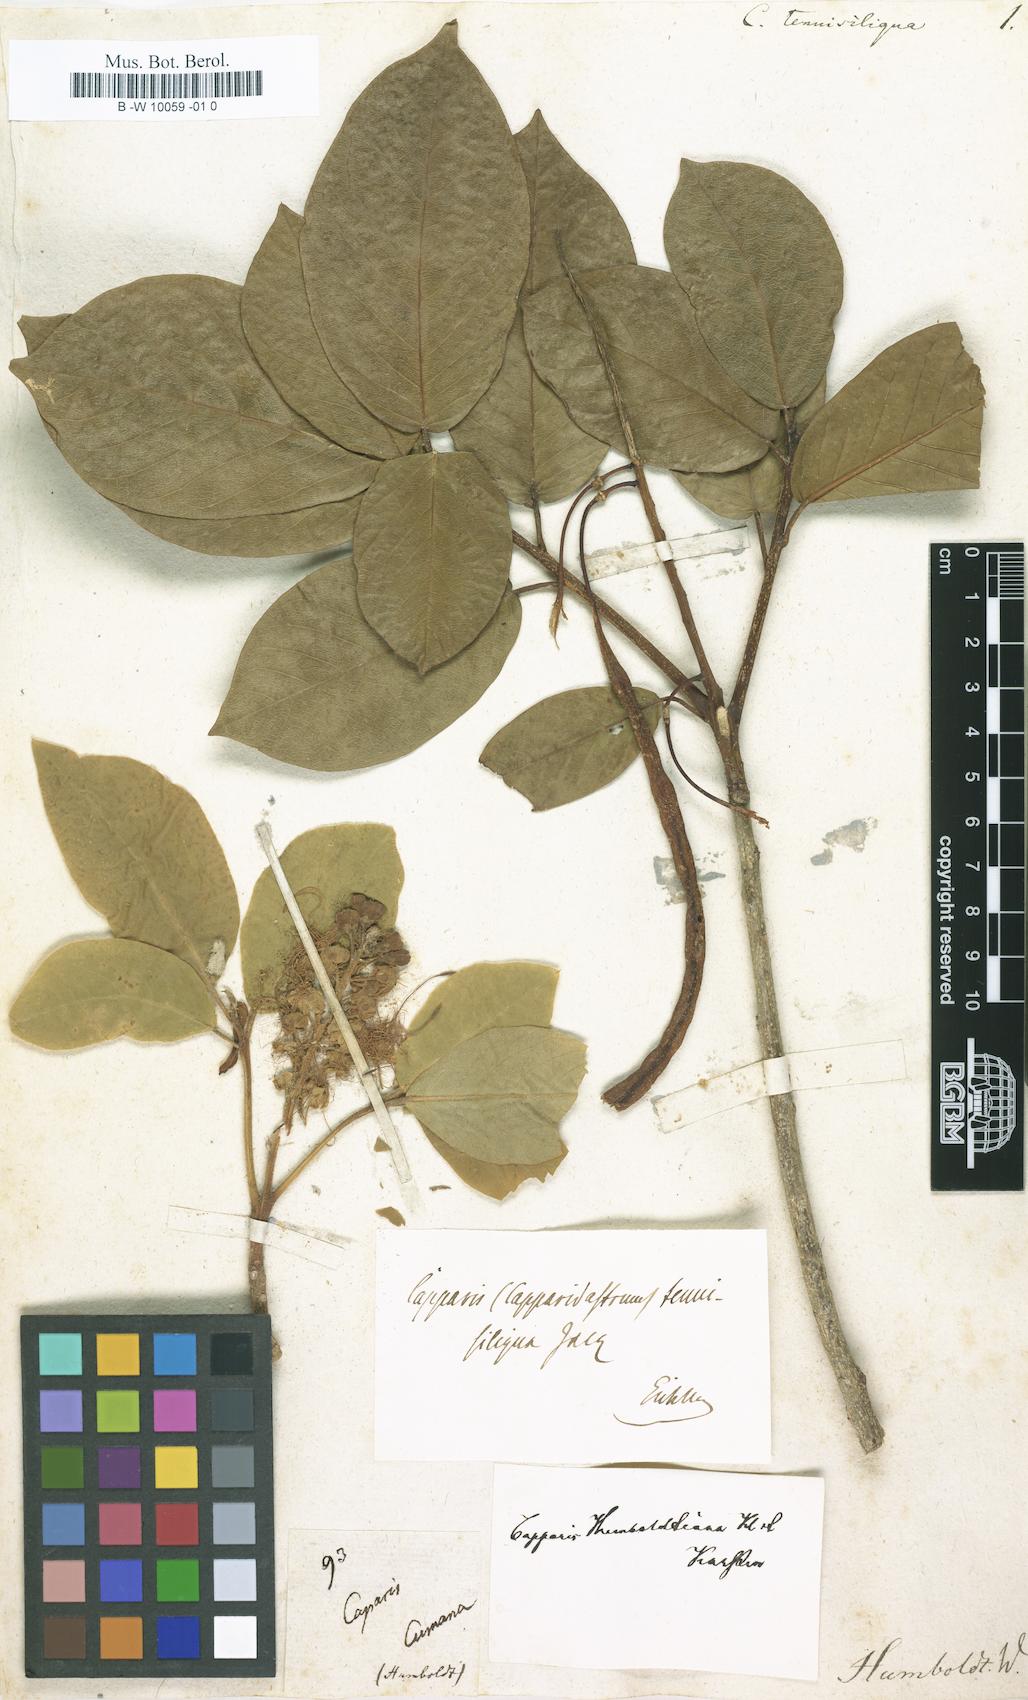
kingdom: Plantae
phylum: Tracheophyta
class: Magnoliopsida
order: Brassicales
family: Capparaceae
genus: Monilicarpa
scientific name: Monilicarpa tenuisiliqua
